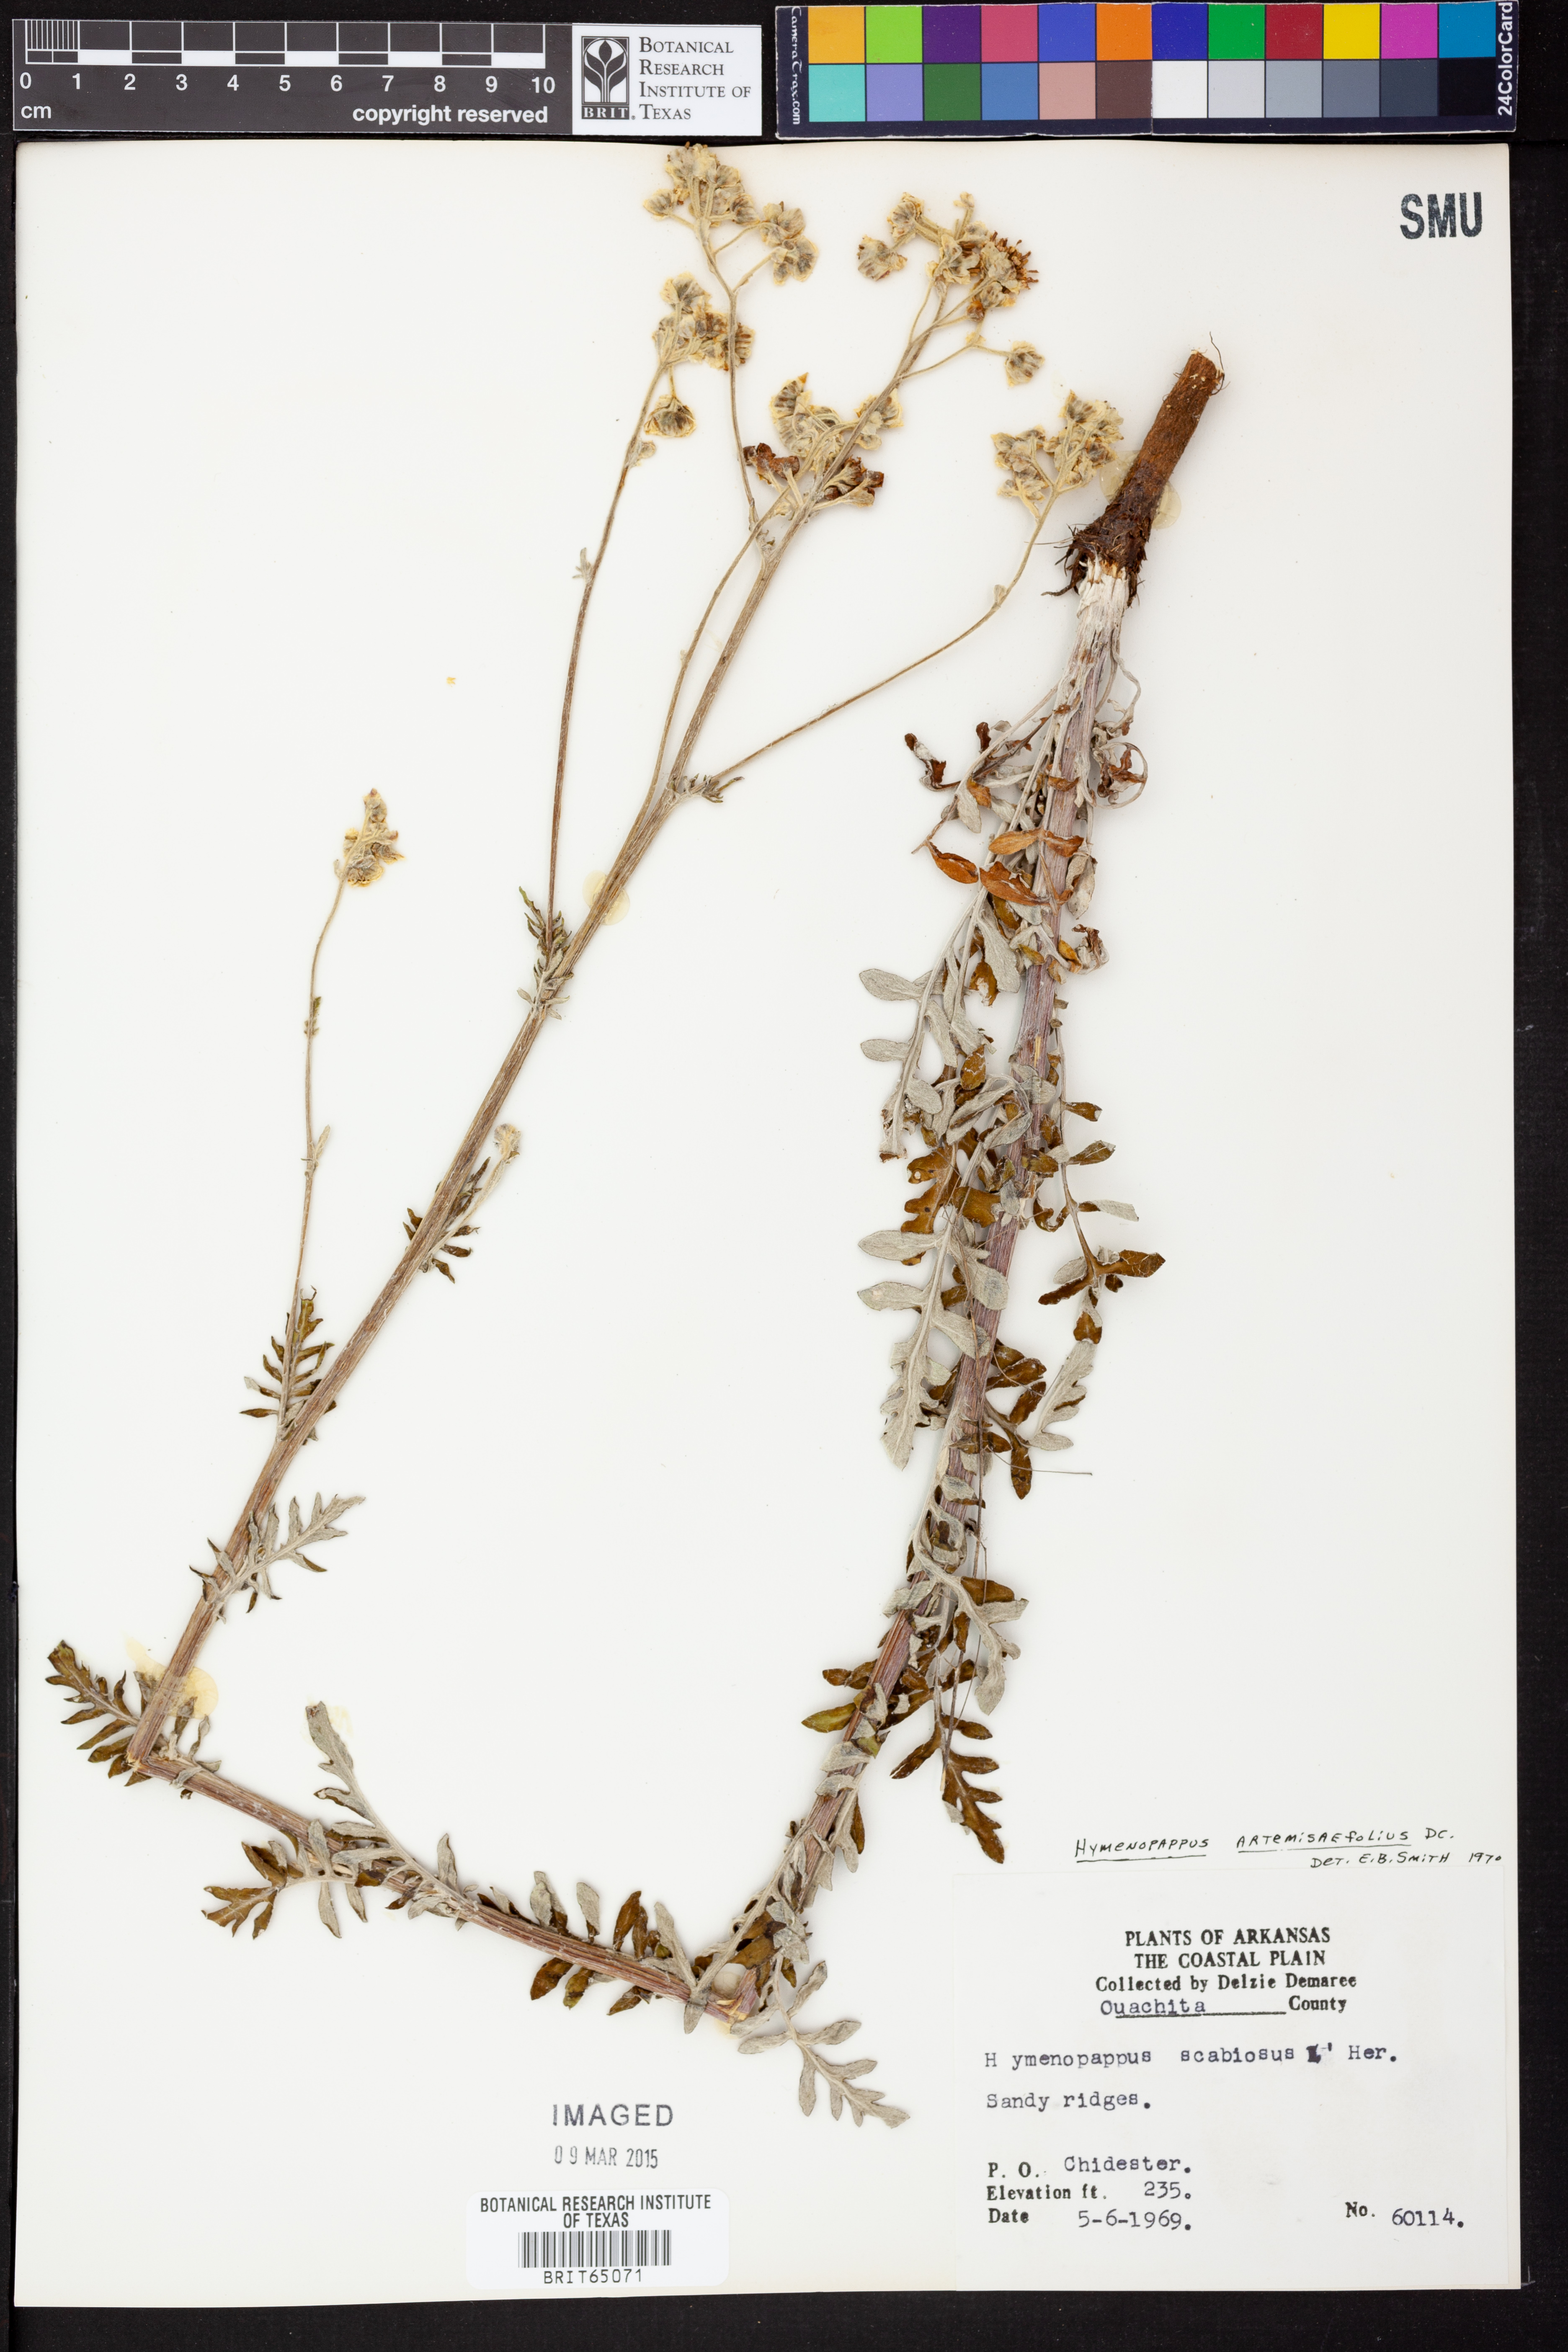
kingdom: Plantae
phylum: Tracheophyta
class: Magnoliopsida
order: Asterales
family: Asteraceae
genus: Hymenopappus
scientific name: Hymenopappus artemisiifolius
